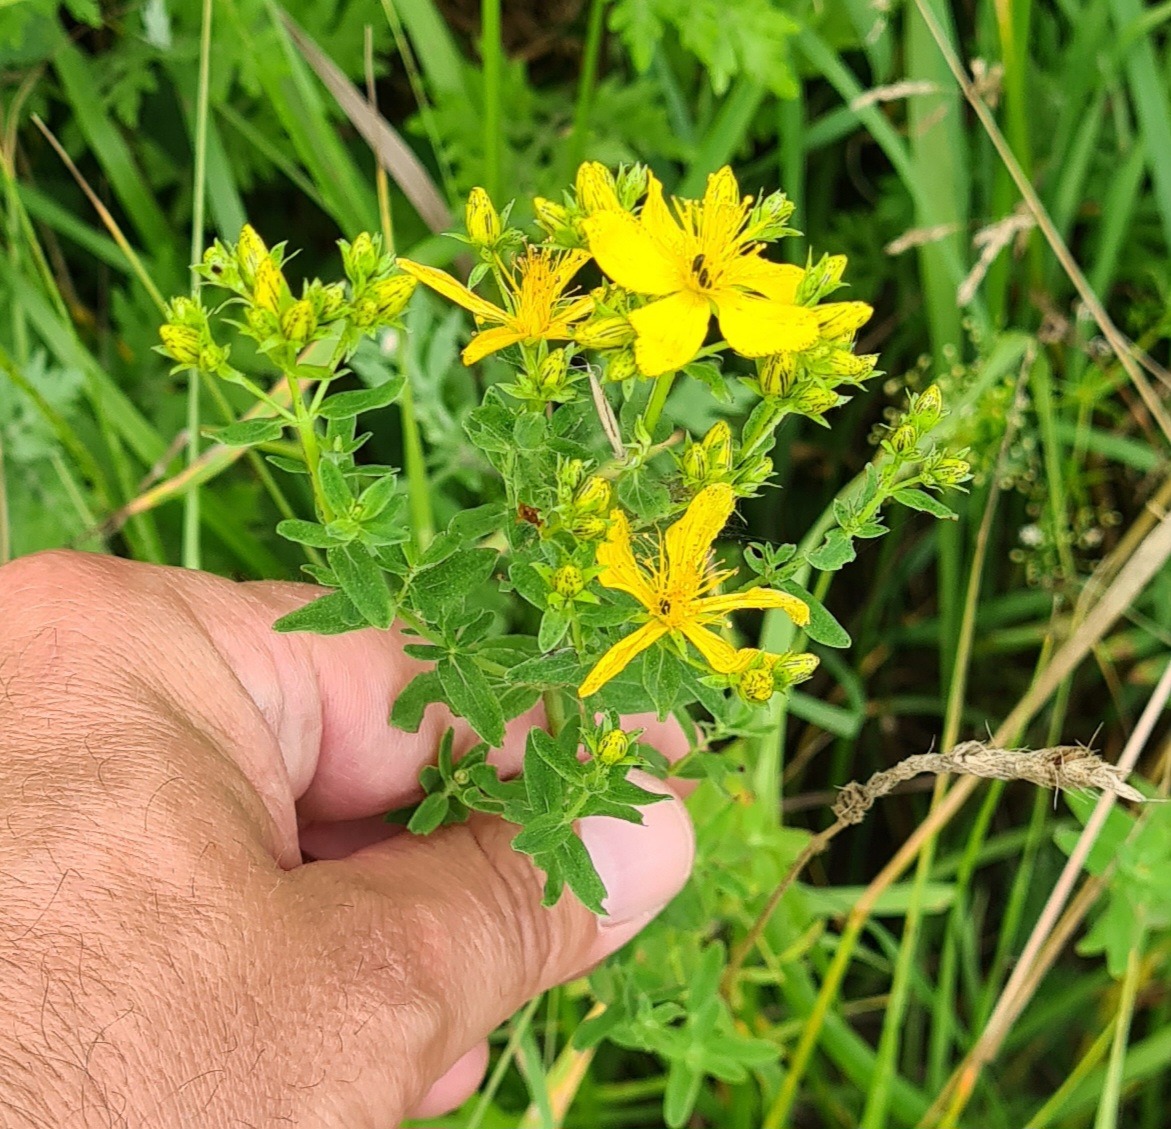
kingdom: Plantae
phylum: Tracheophyta
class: Magnoliopsida
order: Malpighiales
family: Hypericaceae
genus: Hypericum
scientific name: Hypericum perforatum
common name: Prikbladet perikon
